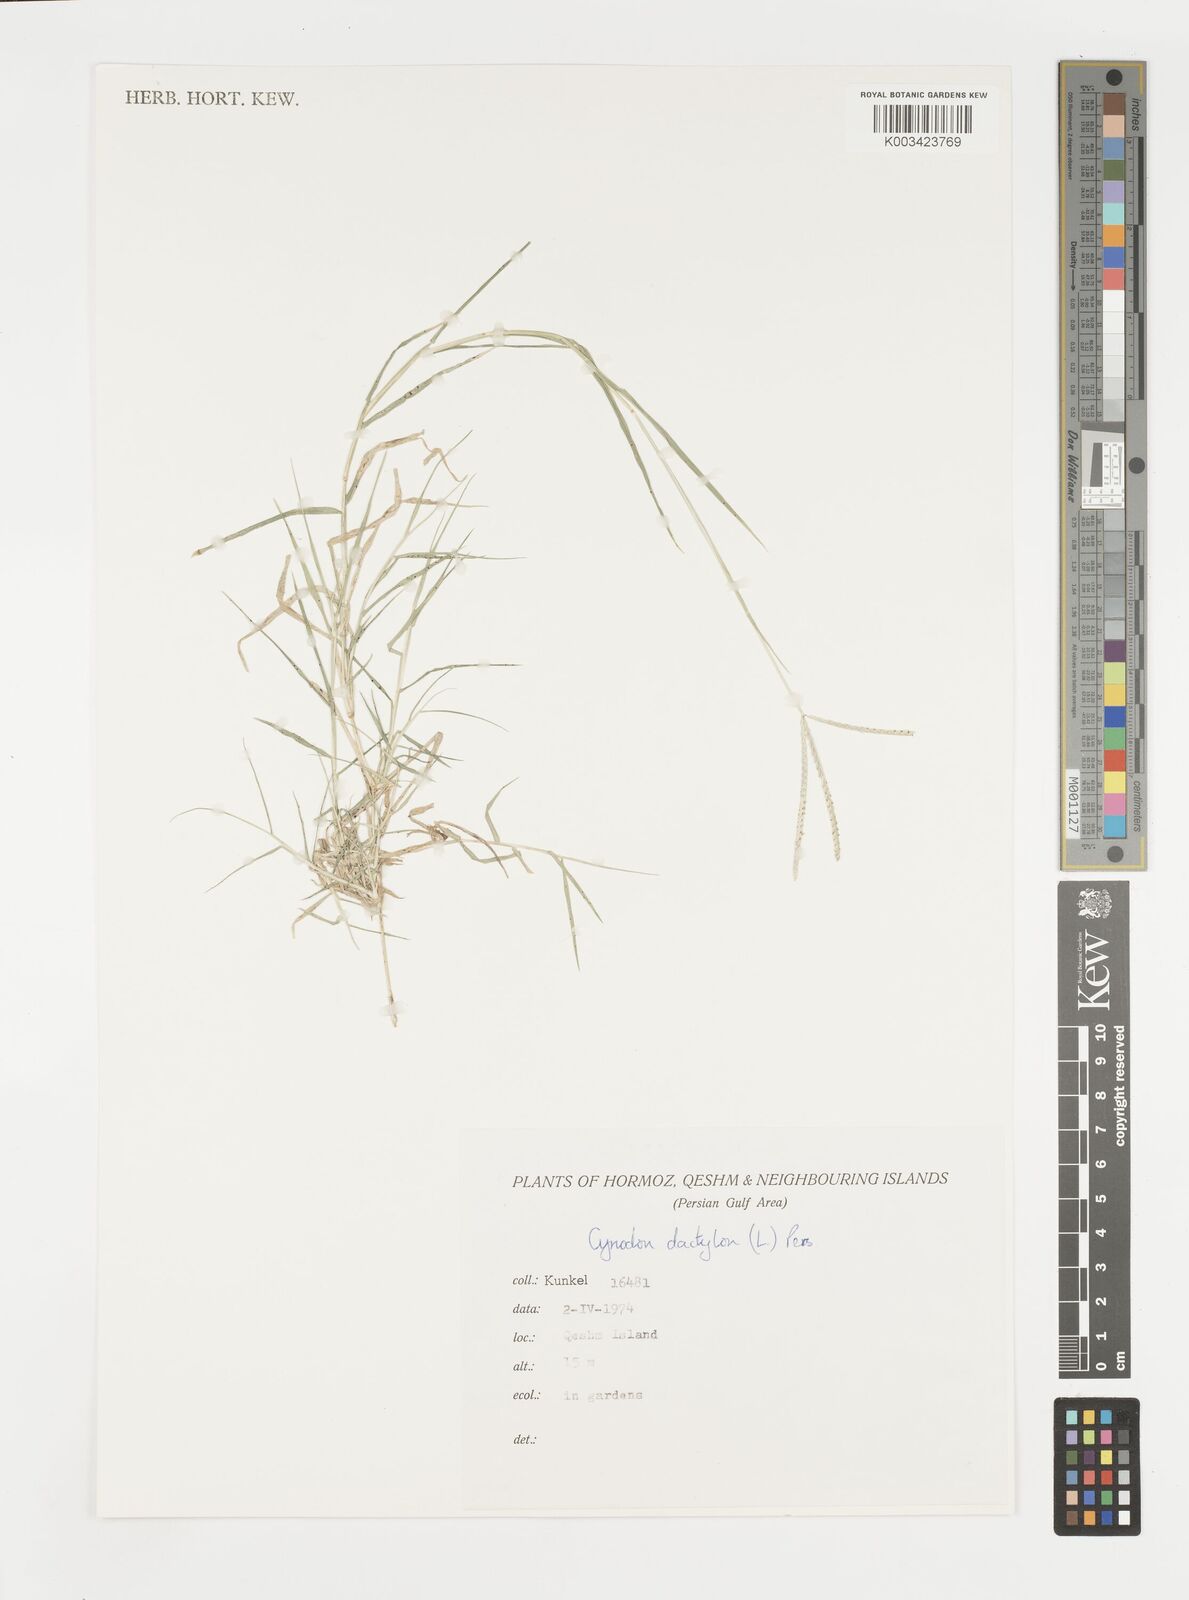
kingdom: Plantae
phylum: Tracheophyta
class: Liliopsida
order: Poales
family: Poaceae
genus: Cynodon
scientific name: Cynodon dactylon
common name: Bermuda grass
